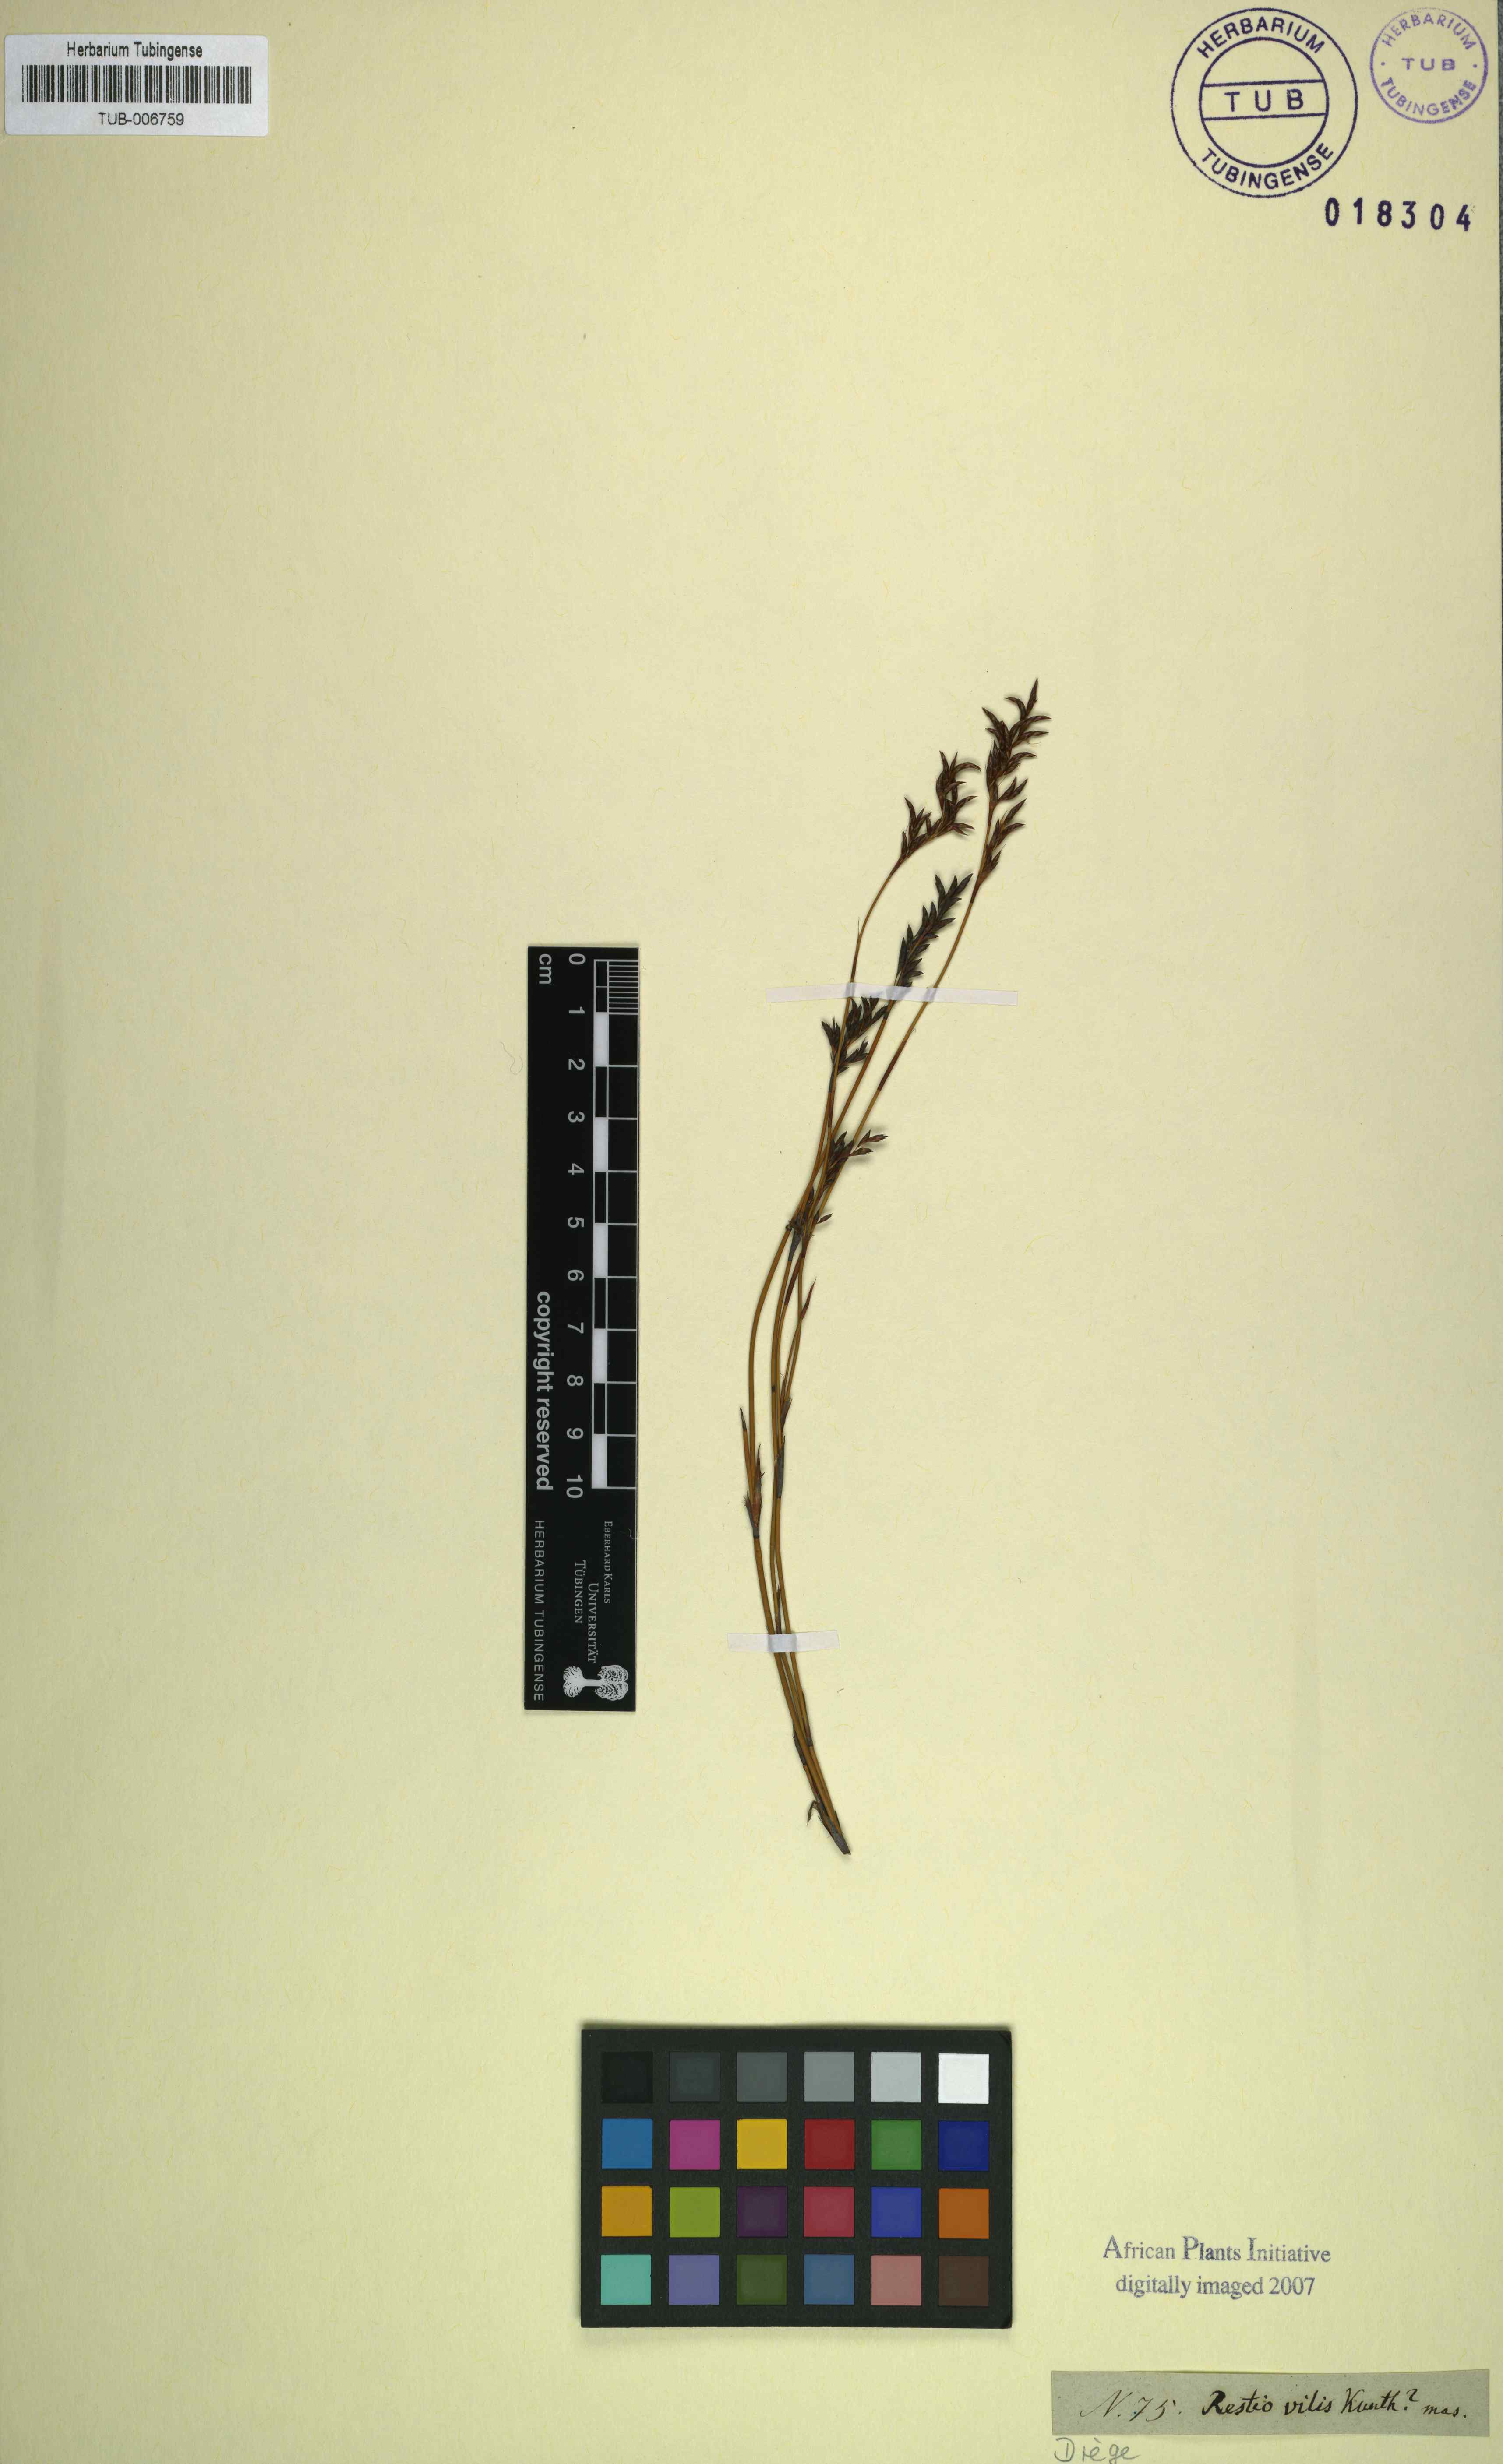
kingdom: Plantae
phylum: Tracheophyta
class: Liliopsida
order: Poales
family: Restionaceae
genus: Restio
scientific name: Restio vilis
